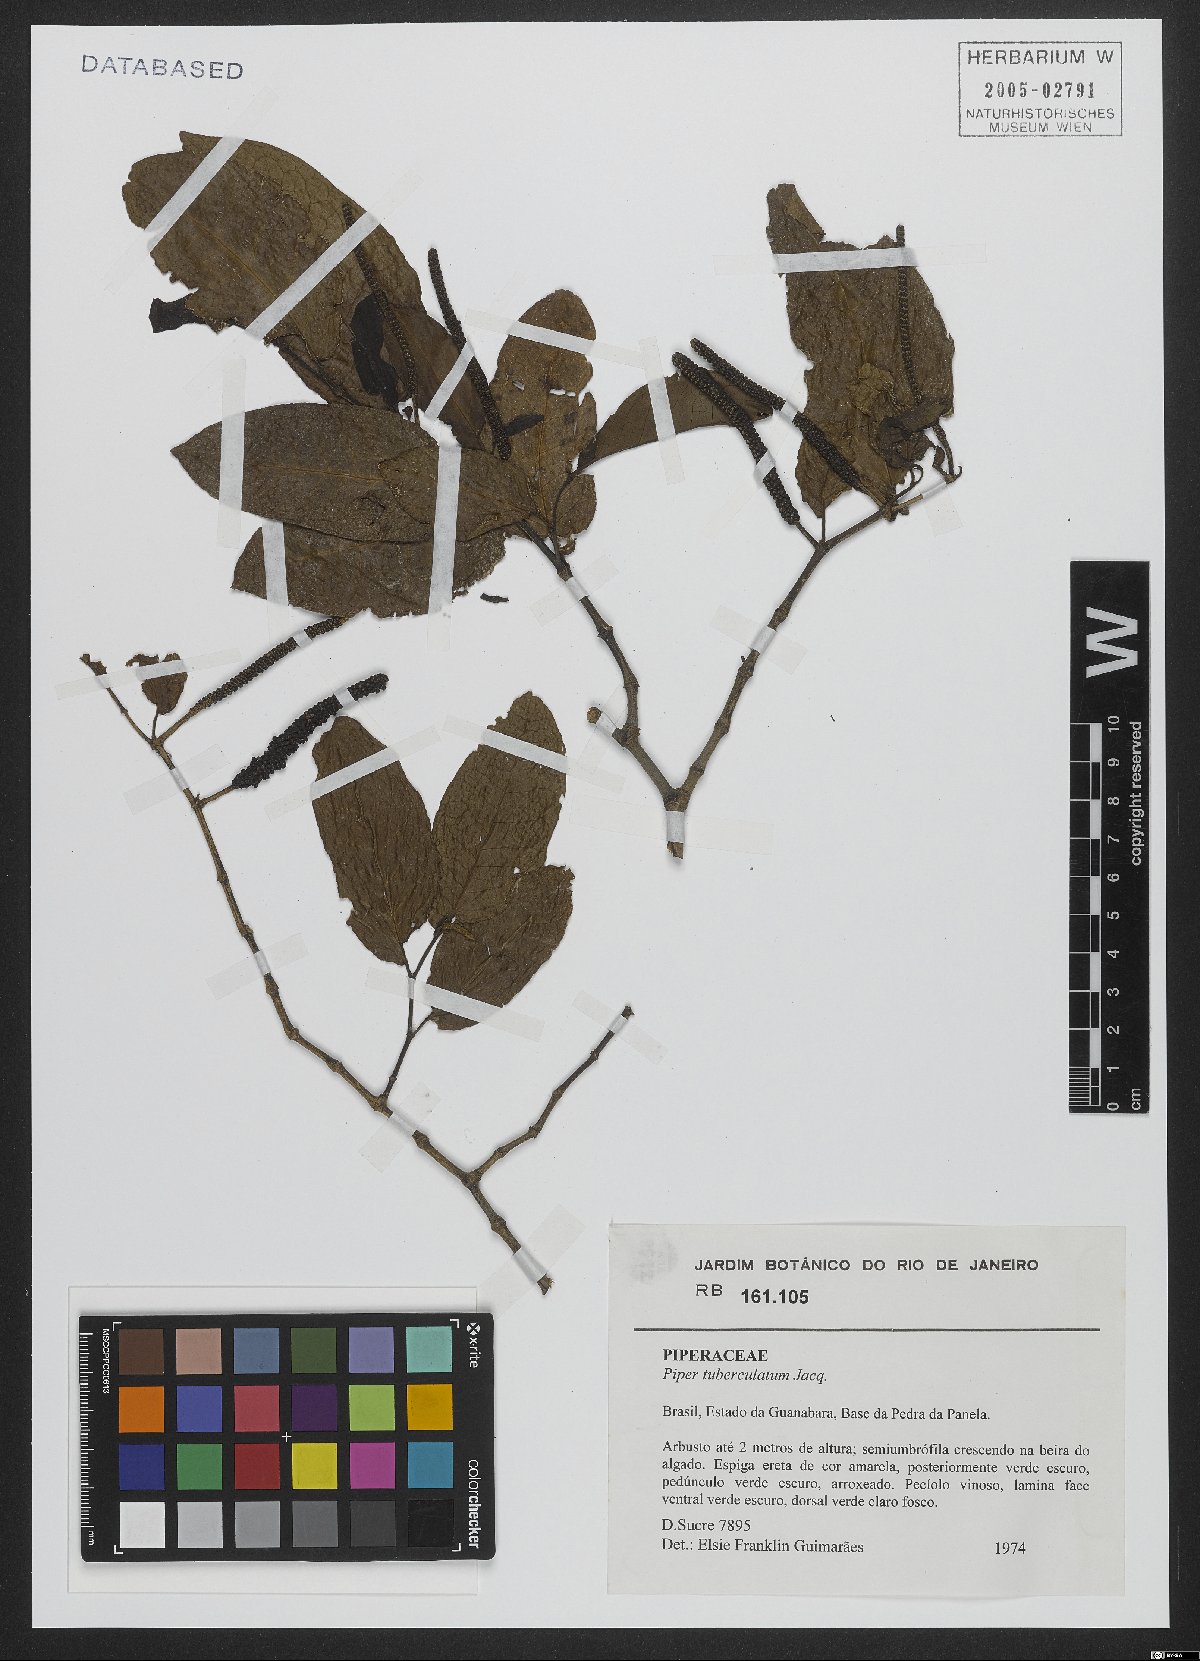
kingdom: Plantae
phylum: Tracheophyta
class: Magnoliopsida
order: Piperales
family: Piperaceae
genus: Piper
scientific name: Piper tuberculatum
